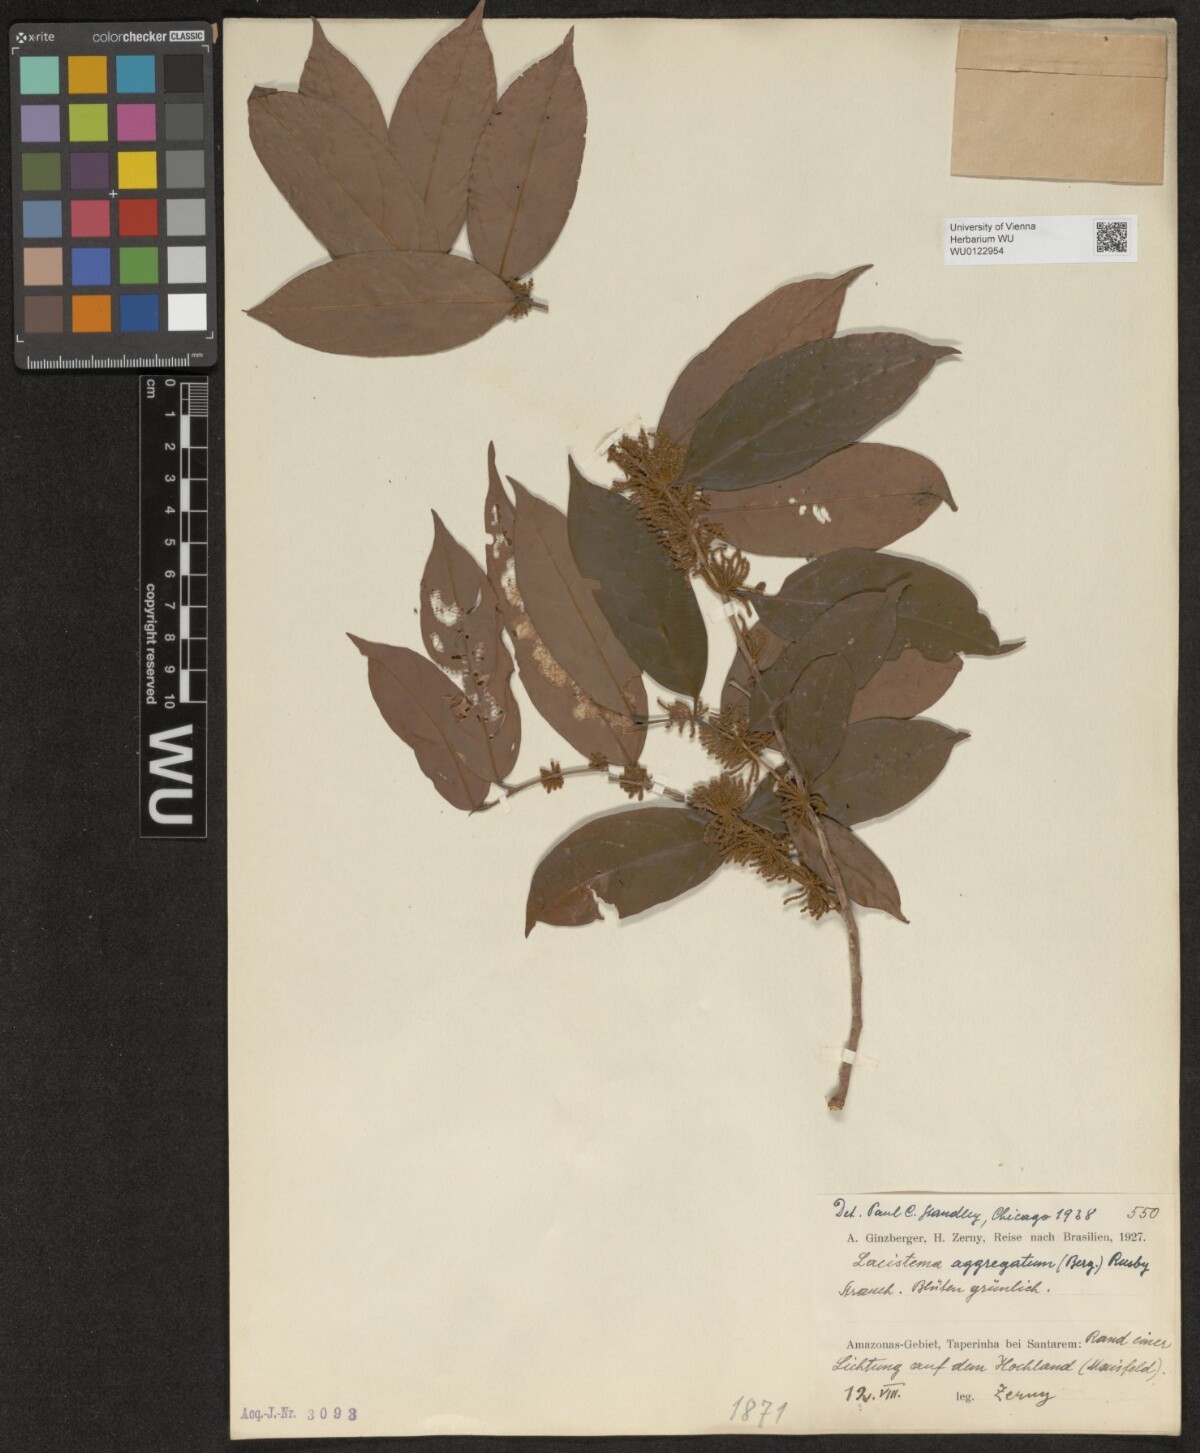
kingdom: Plantae
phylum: Tracheophyta
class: Magnoliopsida
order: Malpighiales
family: Lacistemataceae
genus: Lacistema
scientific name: Lacistema aggregatum
